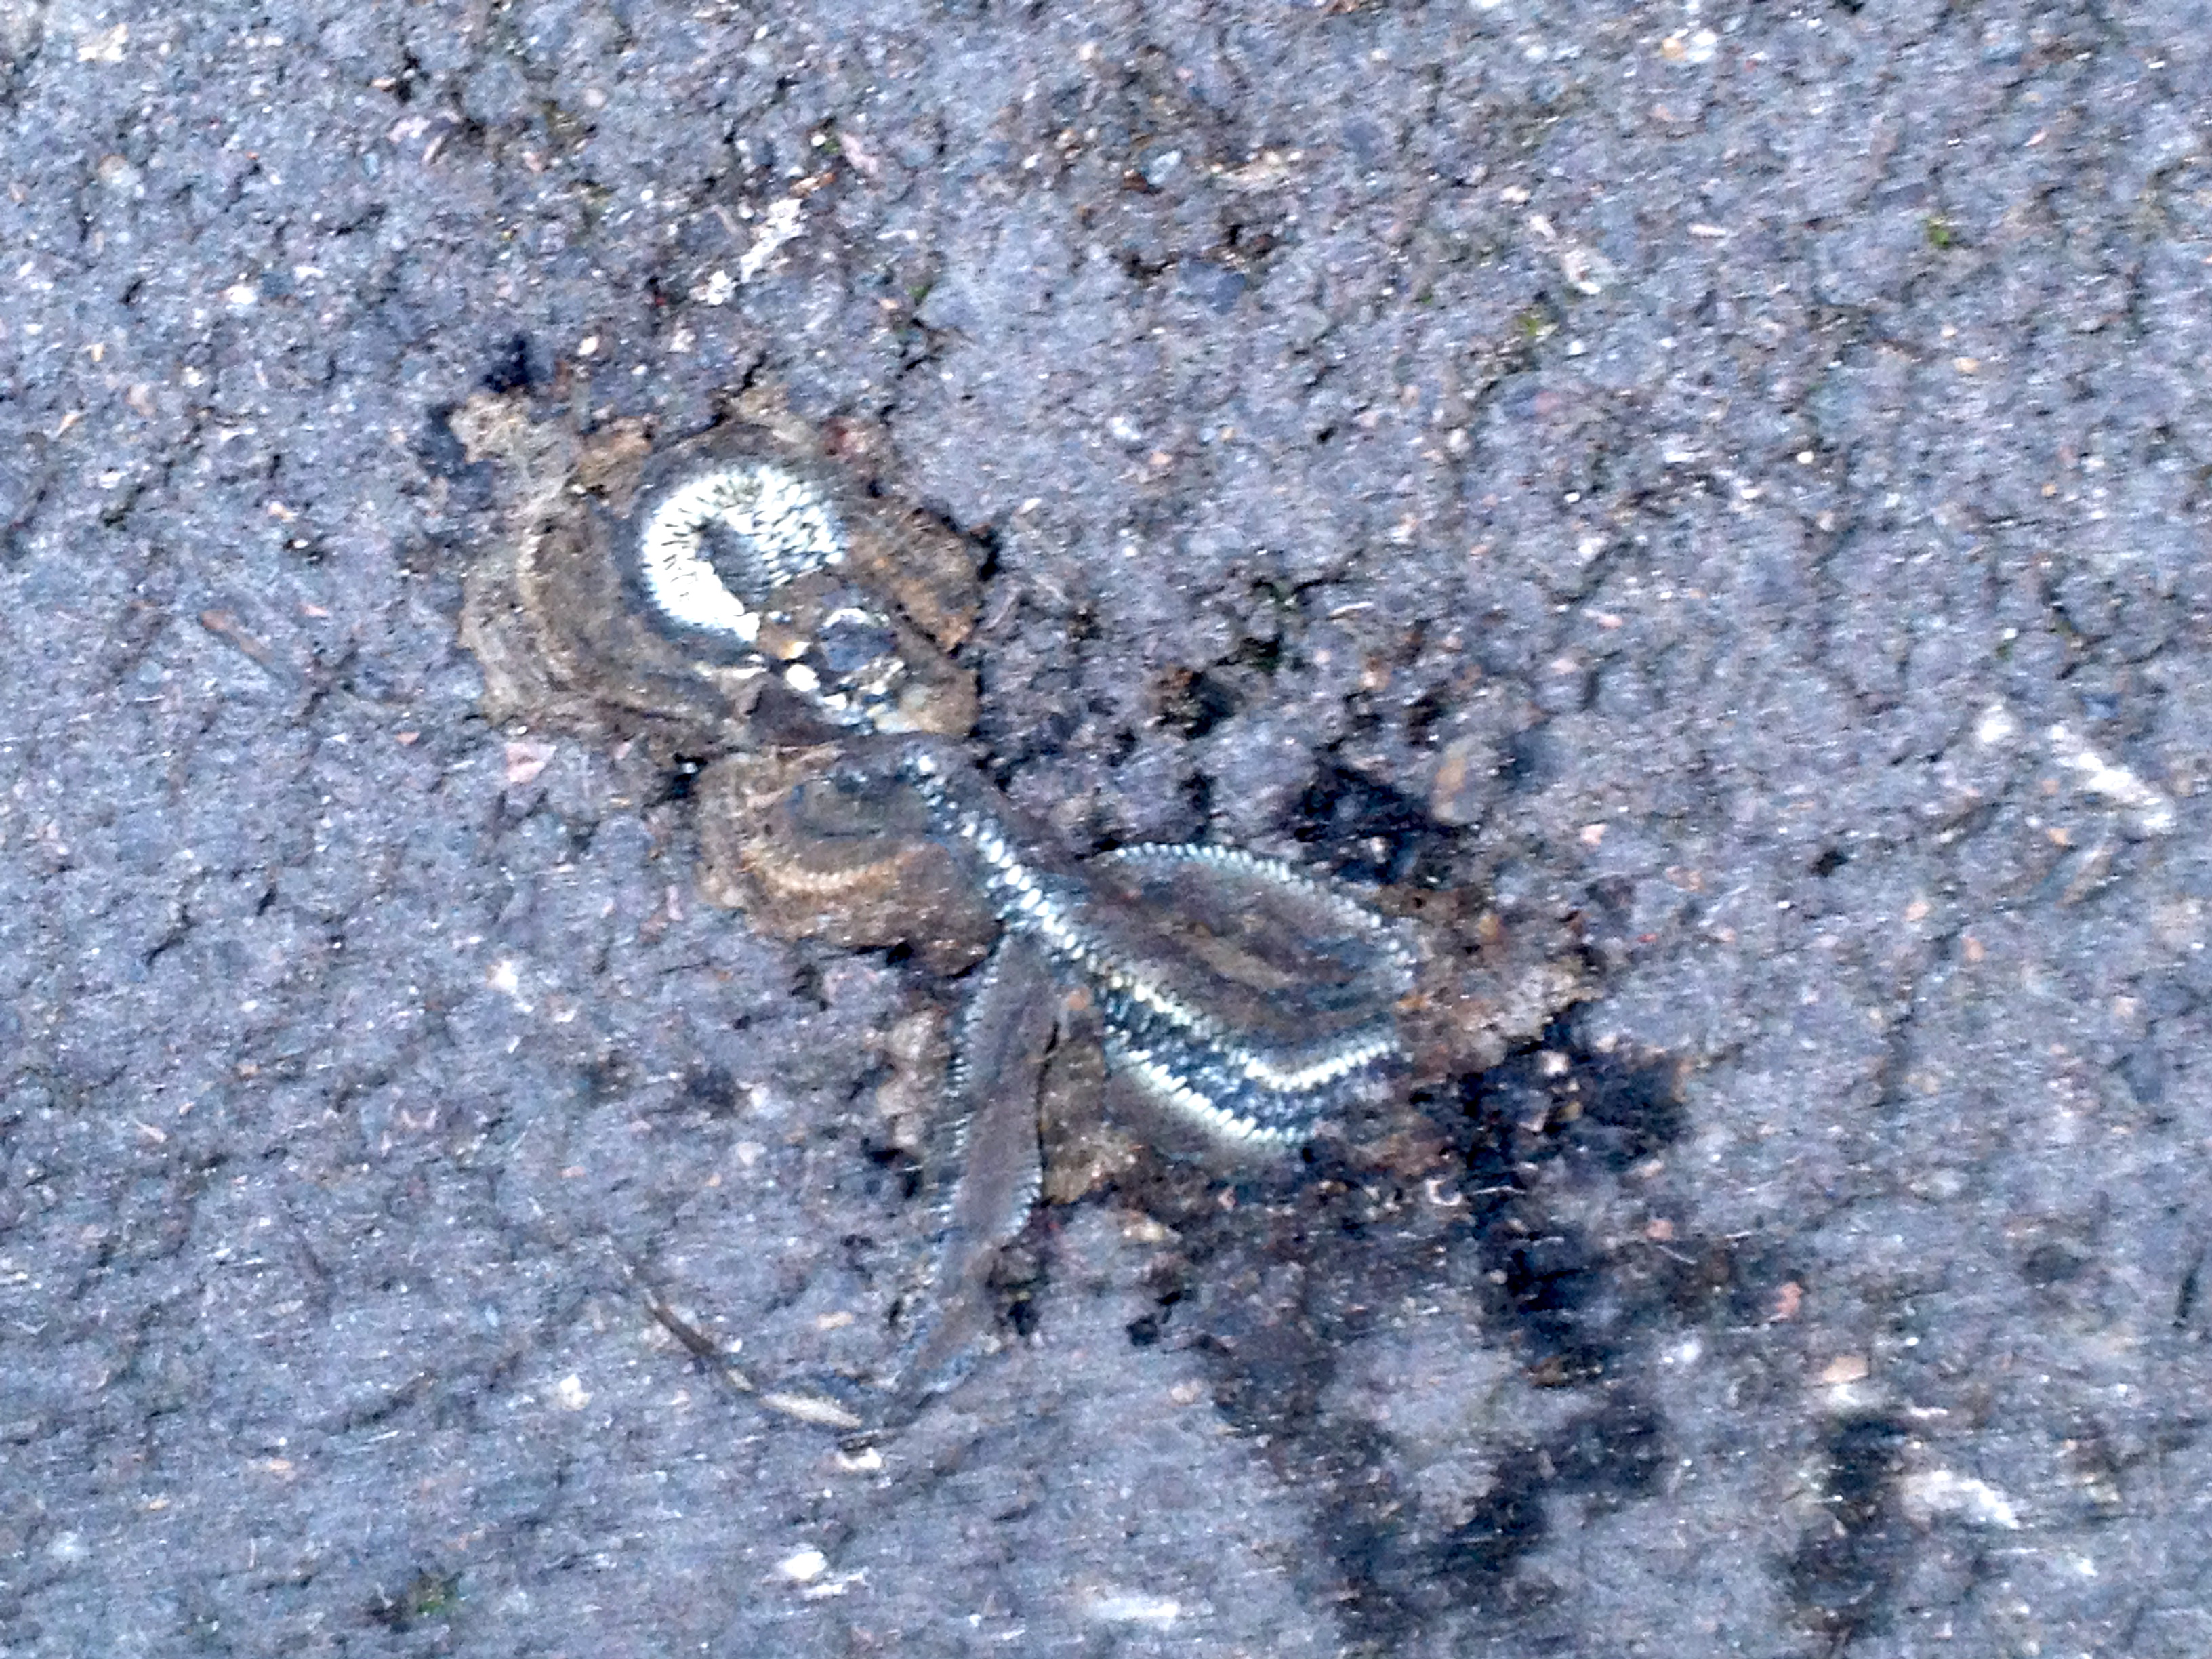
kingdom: Animalia
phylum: Chordata
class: Squamata
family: Colubridae
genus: Natrix
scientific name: Natrix natrix
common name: Grass snake
